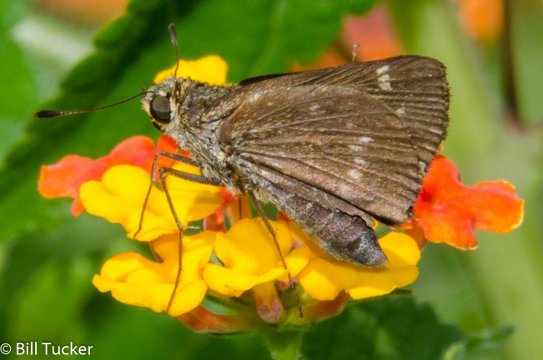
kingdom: Animalia
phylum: Arthropoda
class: Insecta
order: Lepidoptera
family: Hesperiidae
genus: Vernia
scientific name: Vernia verna
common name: Little Glassywing
